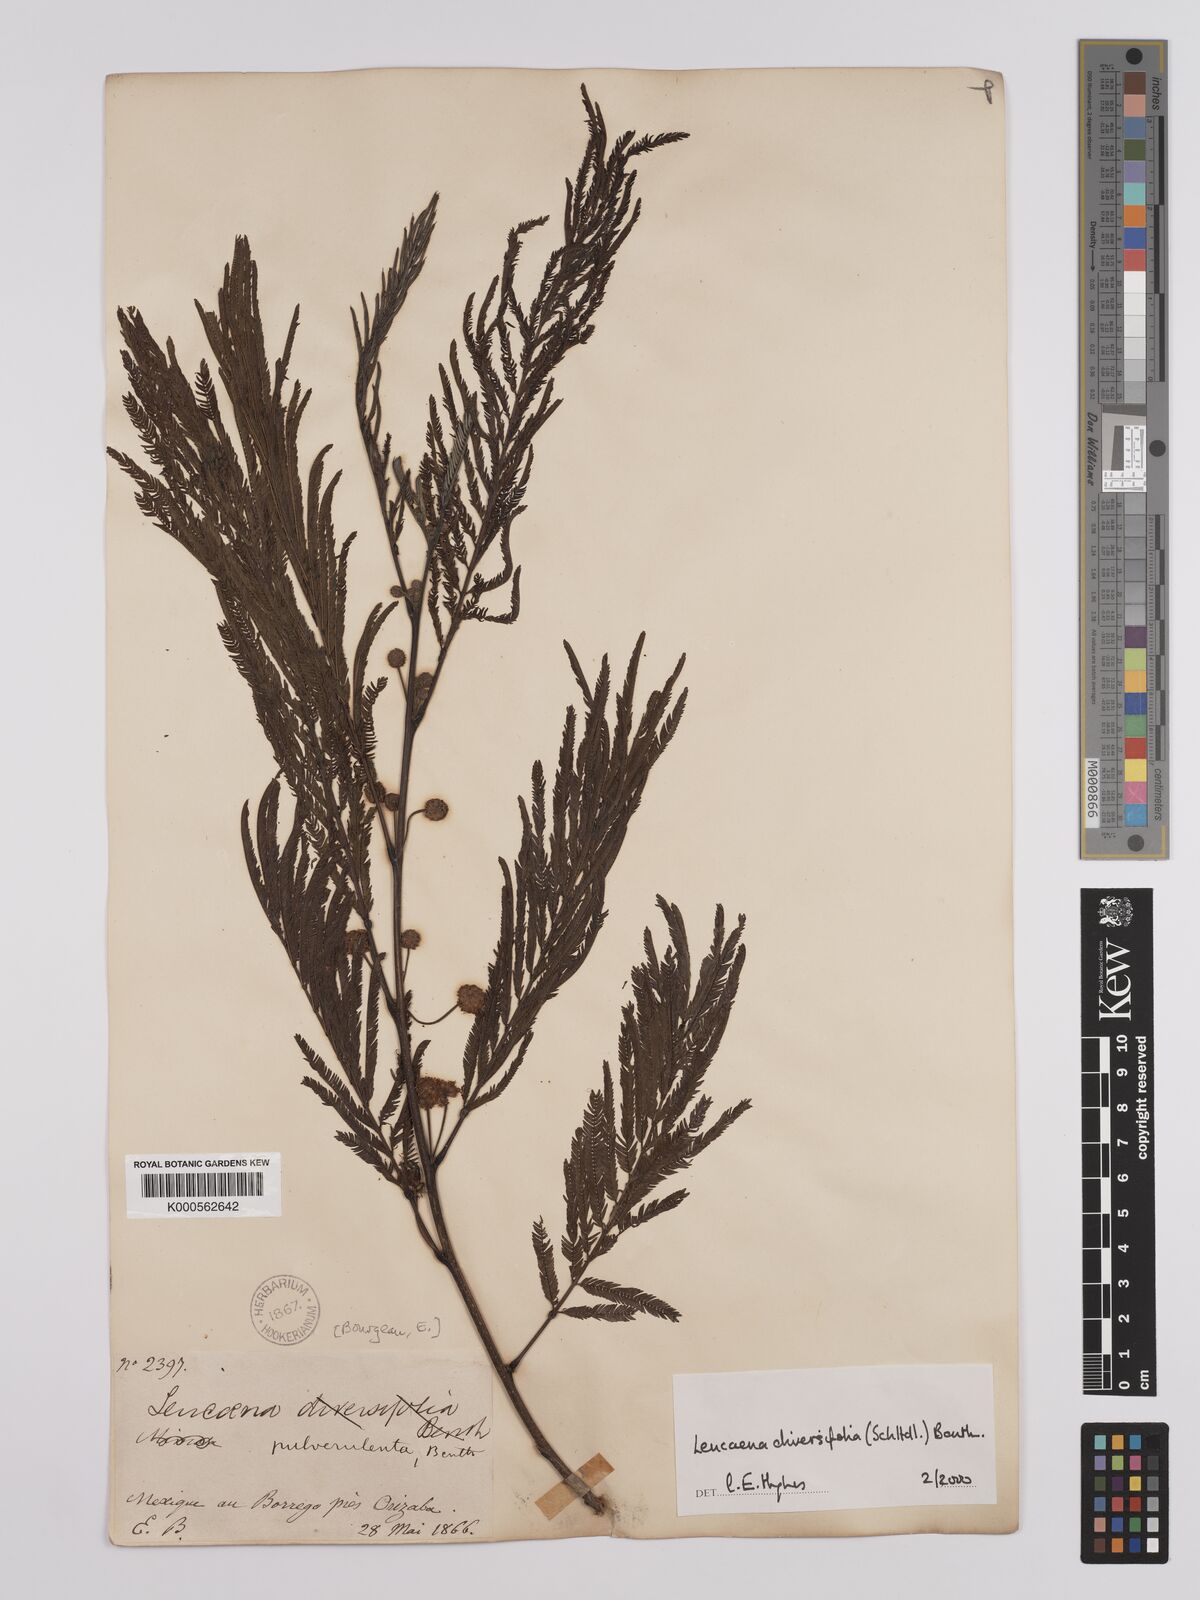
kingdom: Plantae
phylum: Tracheophyta
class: Magnoliopsida
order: Fabales
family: Fabaceae
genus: Leucaena
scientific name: Leucaena diversifolia
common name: Red leucaena
